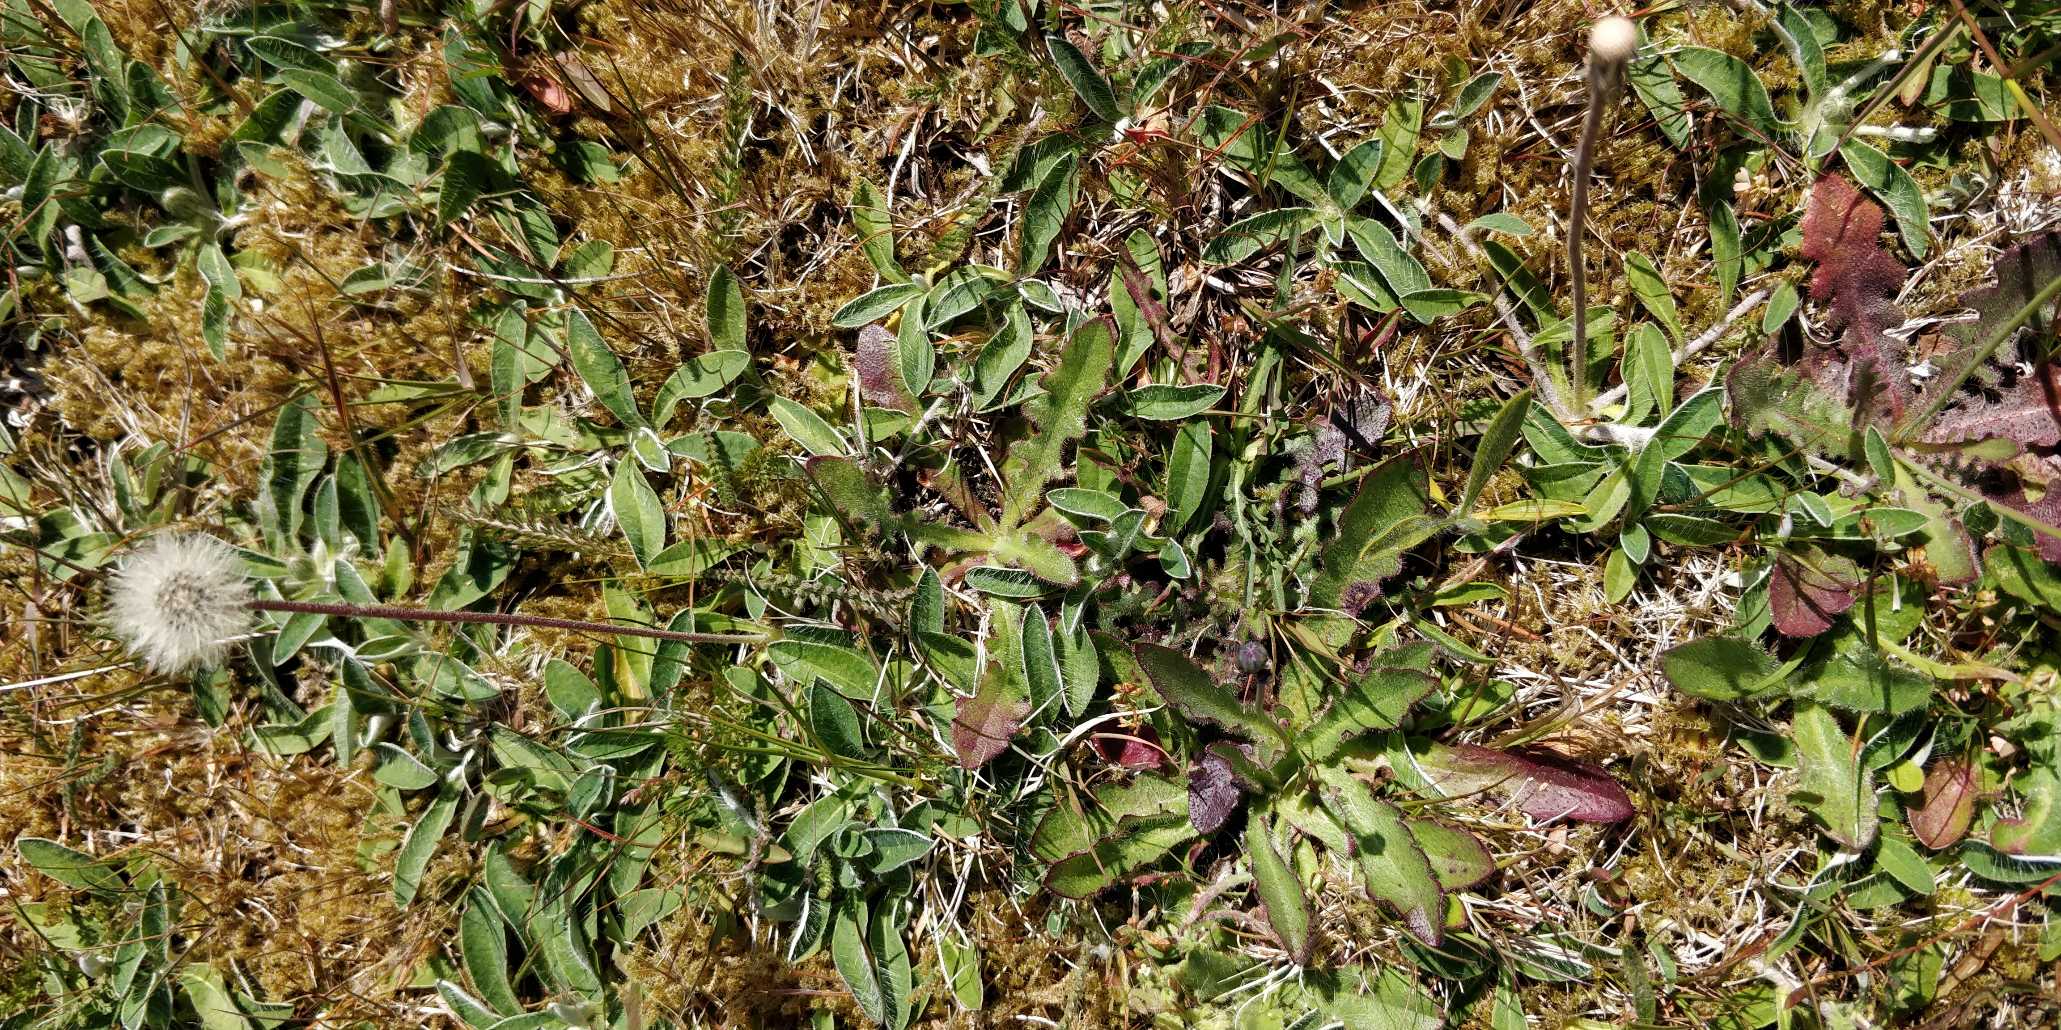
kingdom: Plantae
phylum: Tracheophyta
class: Magnoliopsida
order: Asterales
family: Asteraceae
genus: Pilosella
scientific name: Pilosella officinarum
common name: Håret høgeurt
